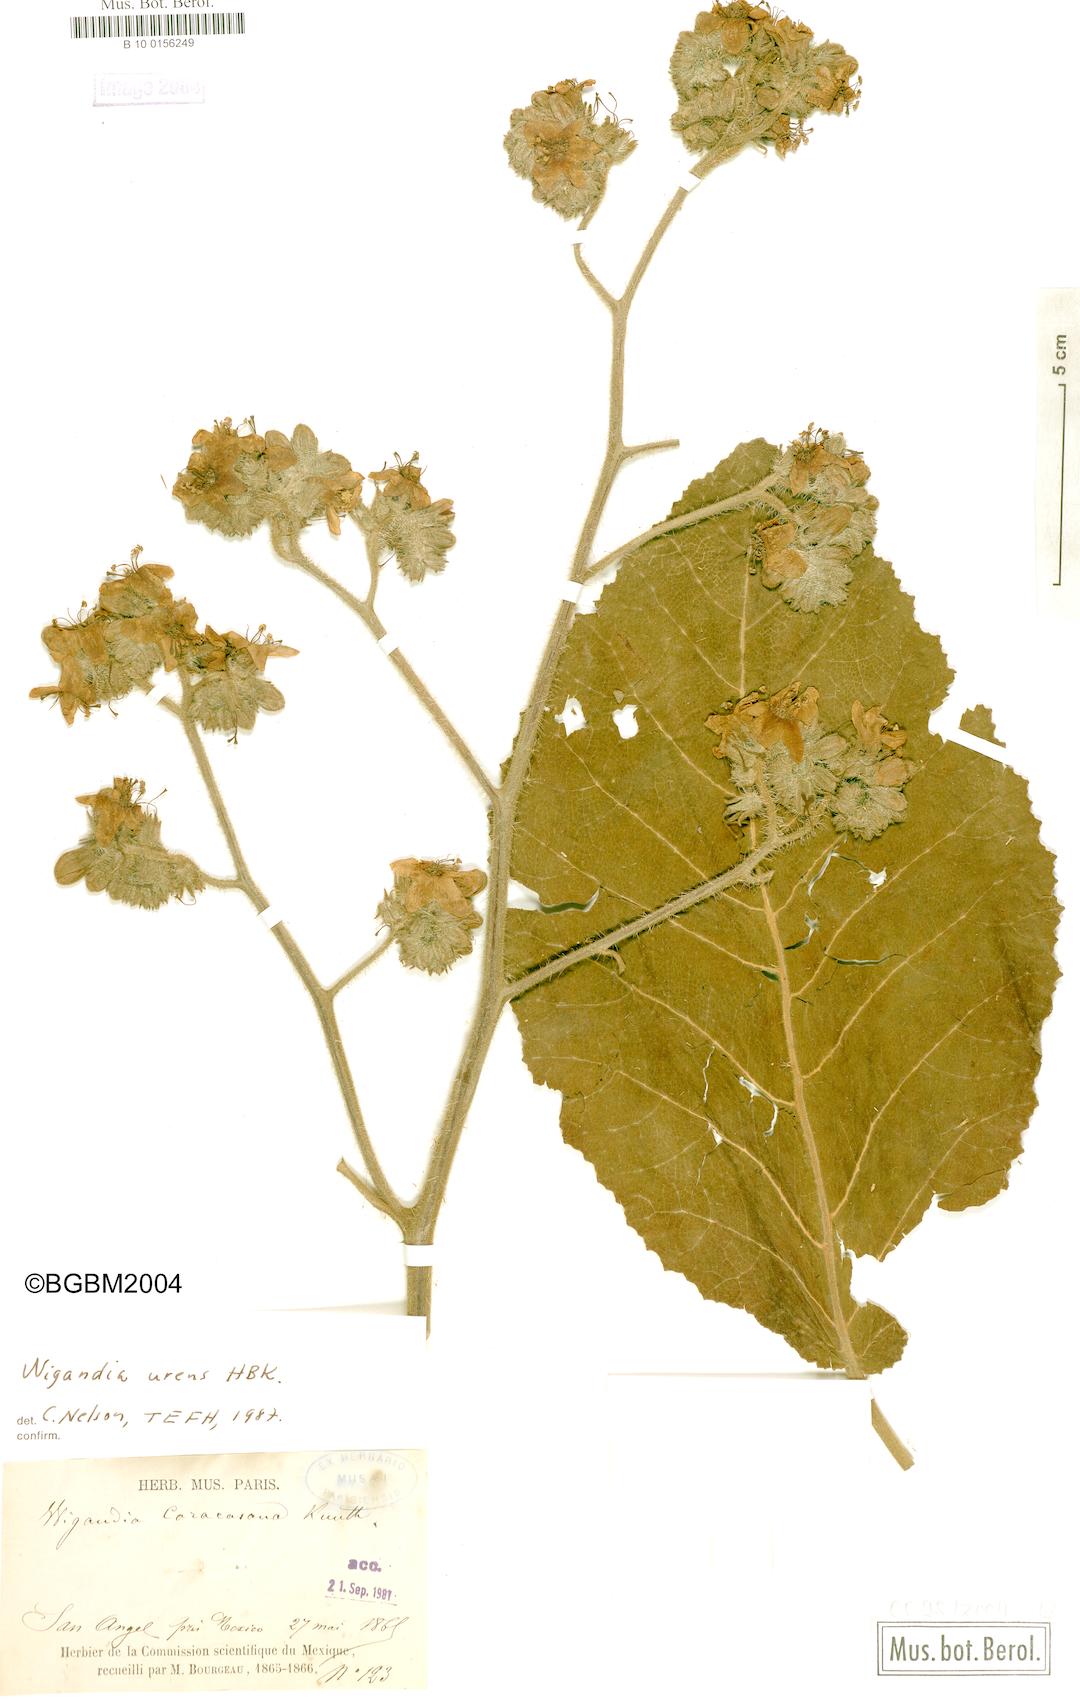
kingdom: Plantae
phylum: Tracheophyta
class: Magnoliopsida
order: Boraginales
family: Namaceae
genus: Wigandia
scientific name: Wigandia urens
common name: Caracus wigandia
